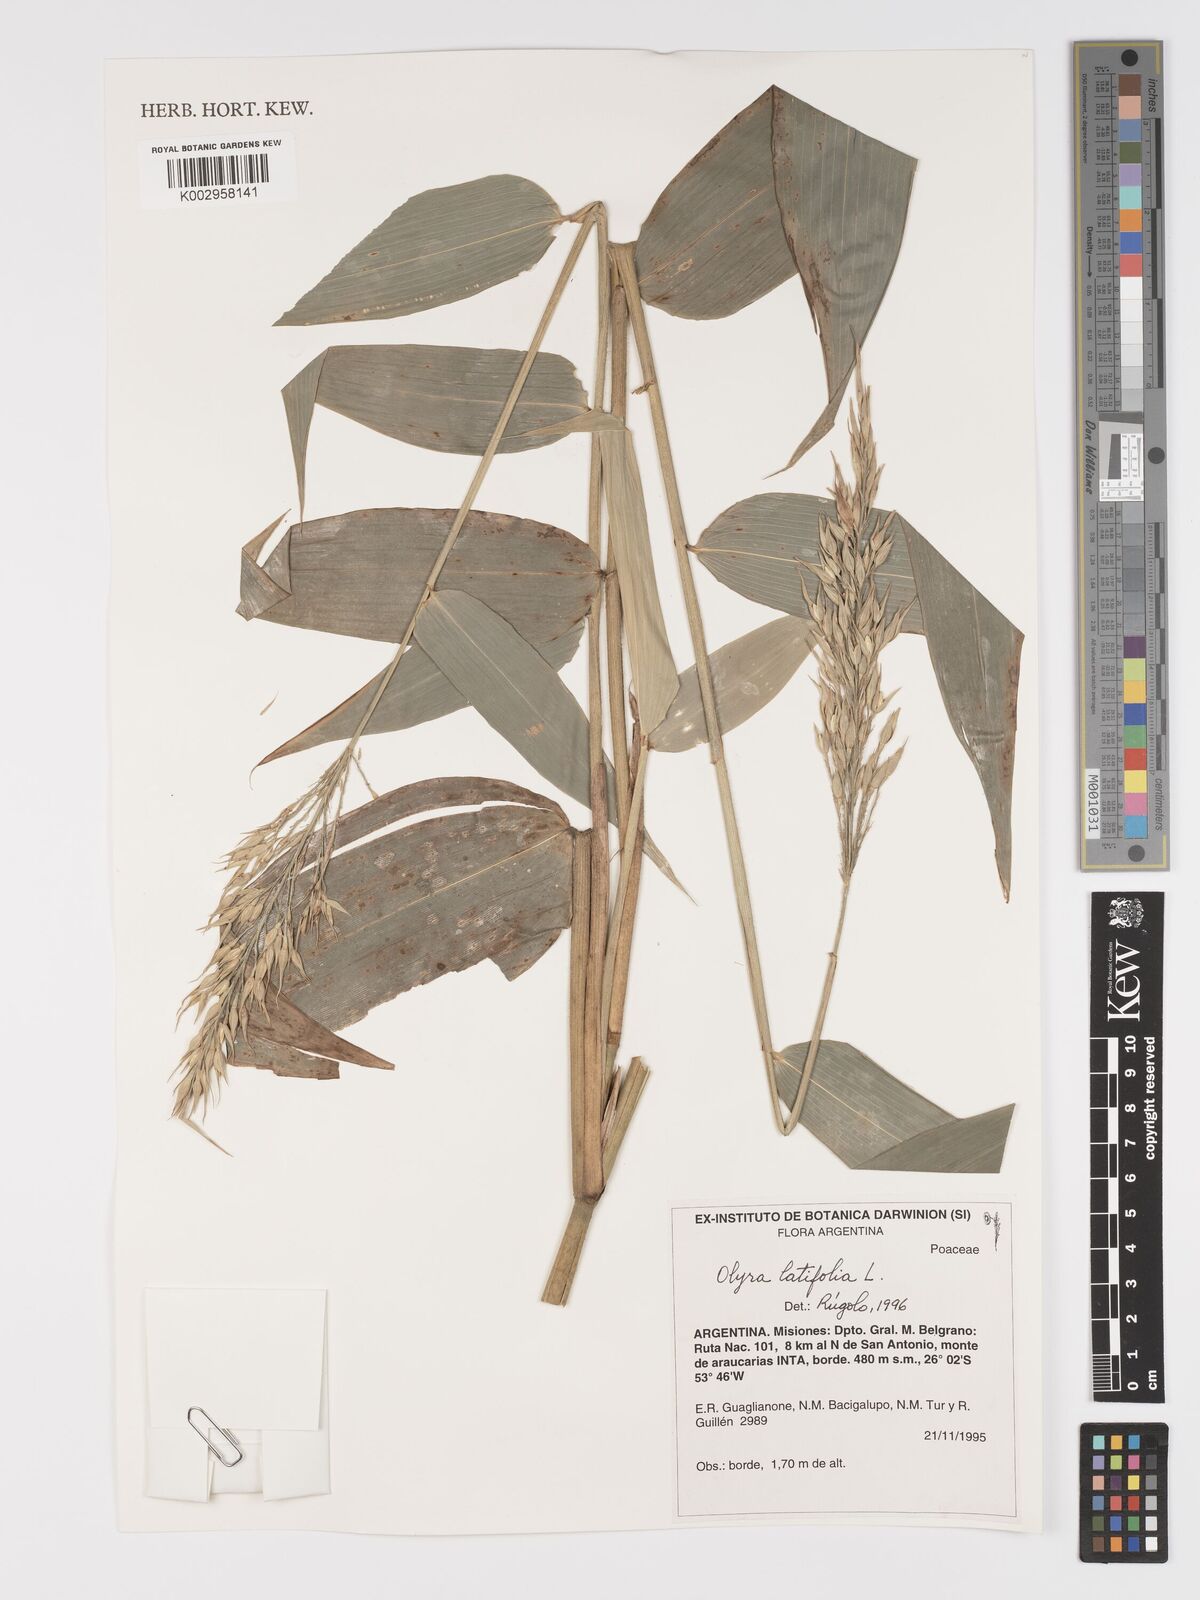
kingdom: Plantae
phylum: Tracheophyta
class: Liliopsida
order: Poales
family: Poaceae
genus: Olyra
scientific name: Olyra latifolia
